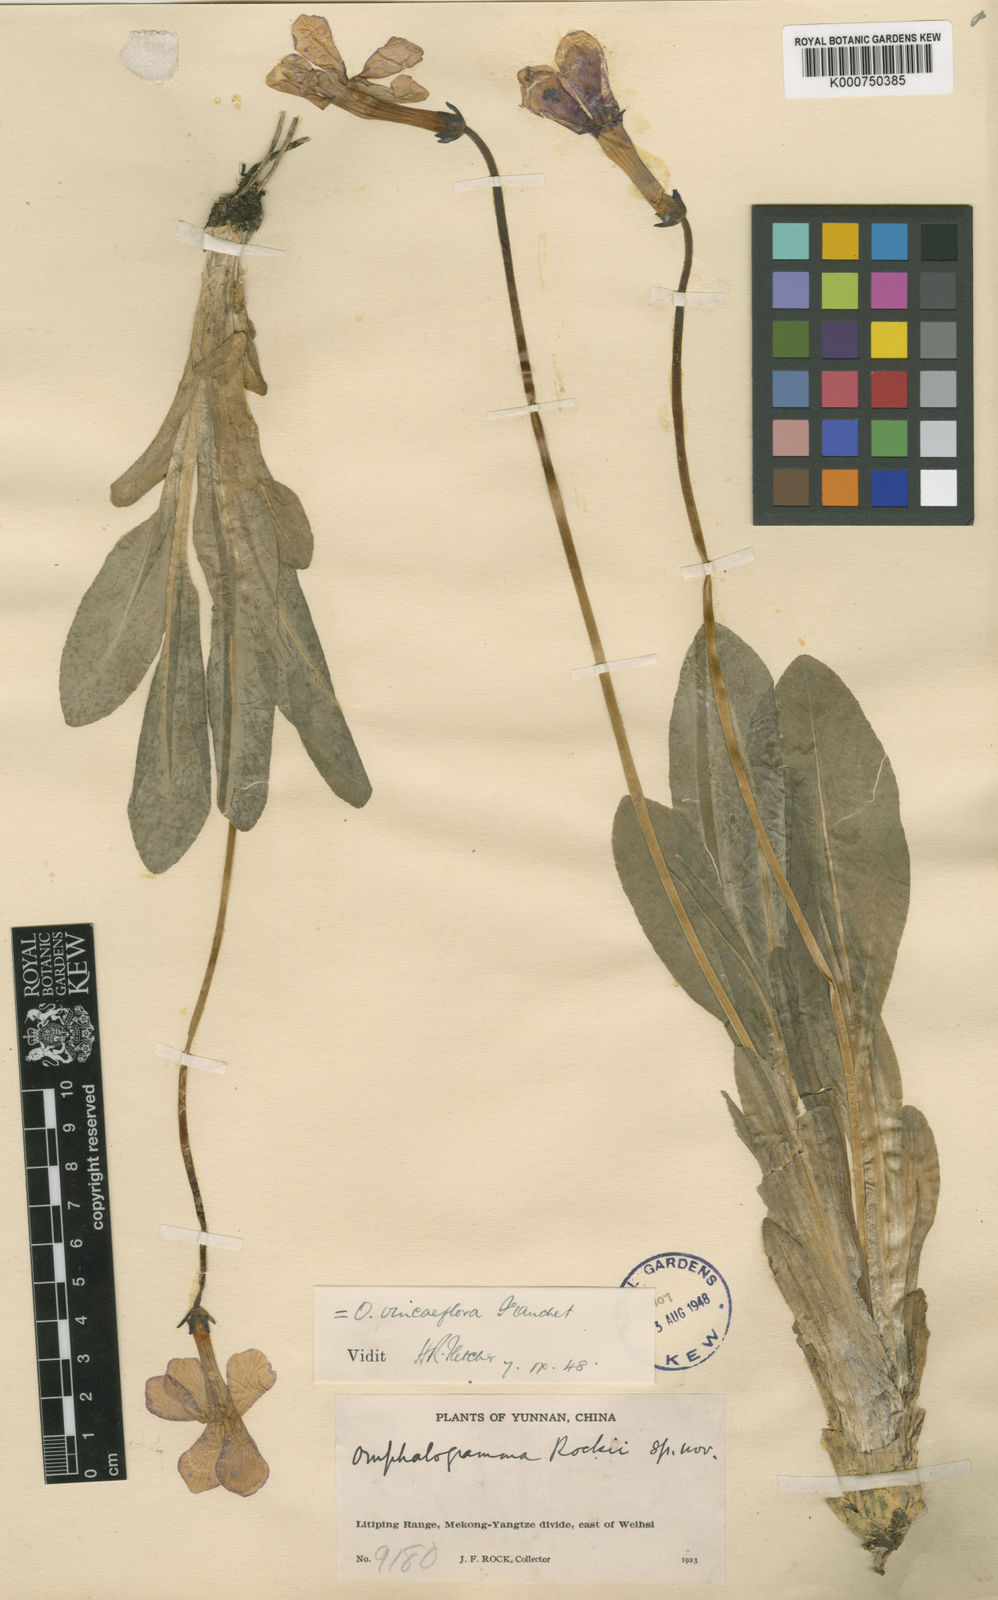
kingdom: Plantae
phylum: Tracheophyta
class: Magnoliopsida
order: Ericales
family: Primulaceae
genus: Omphalogramma
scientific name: Omphalogramma vinciflorum
